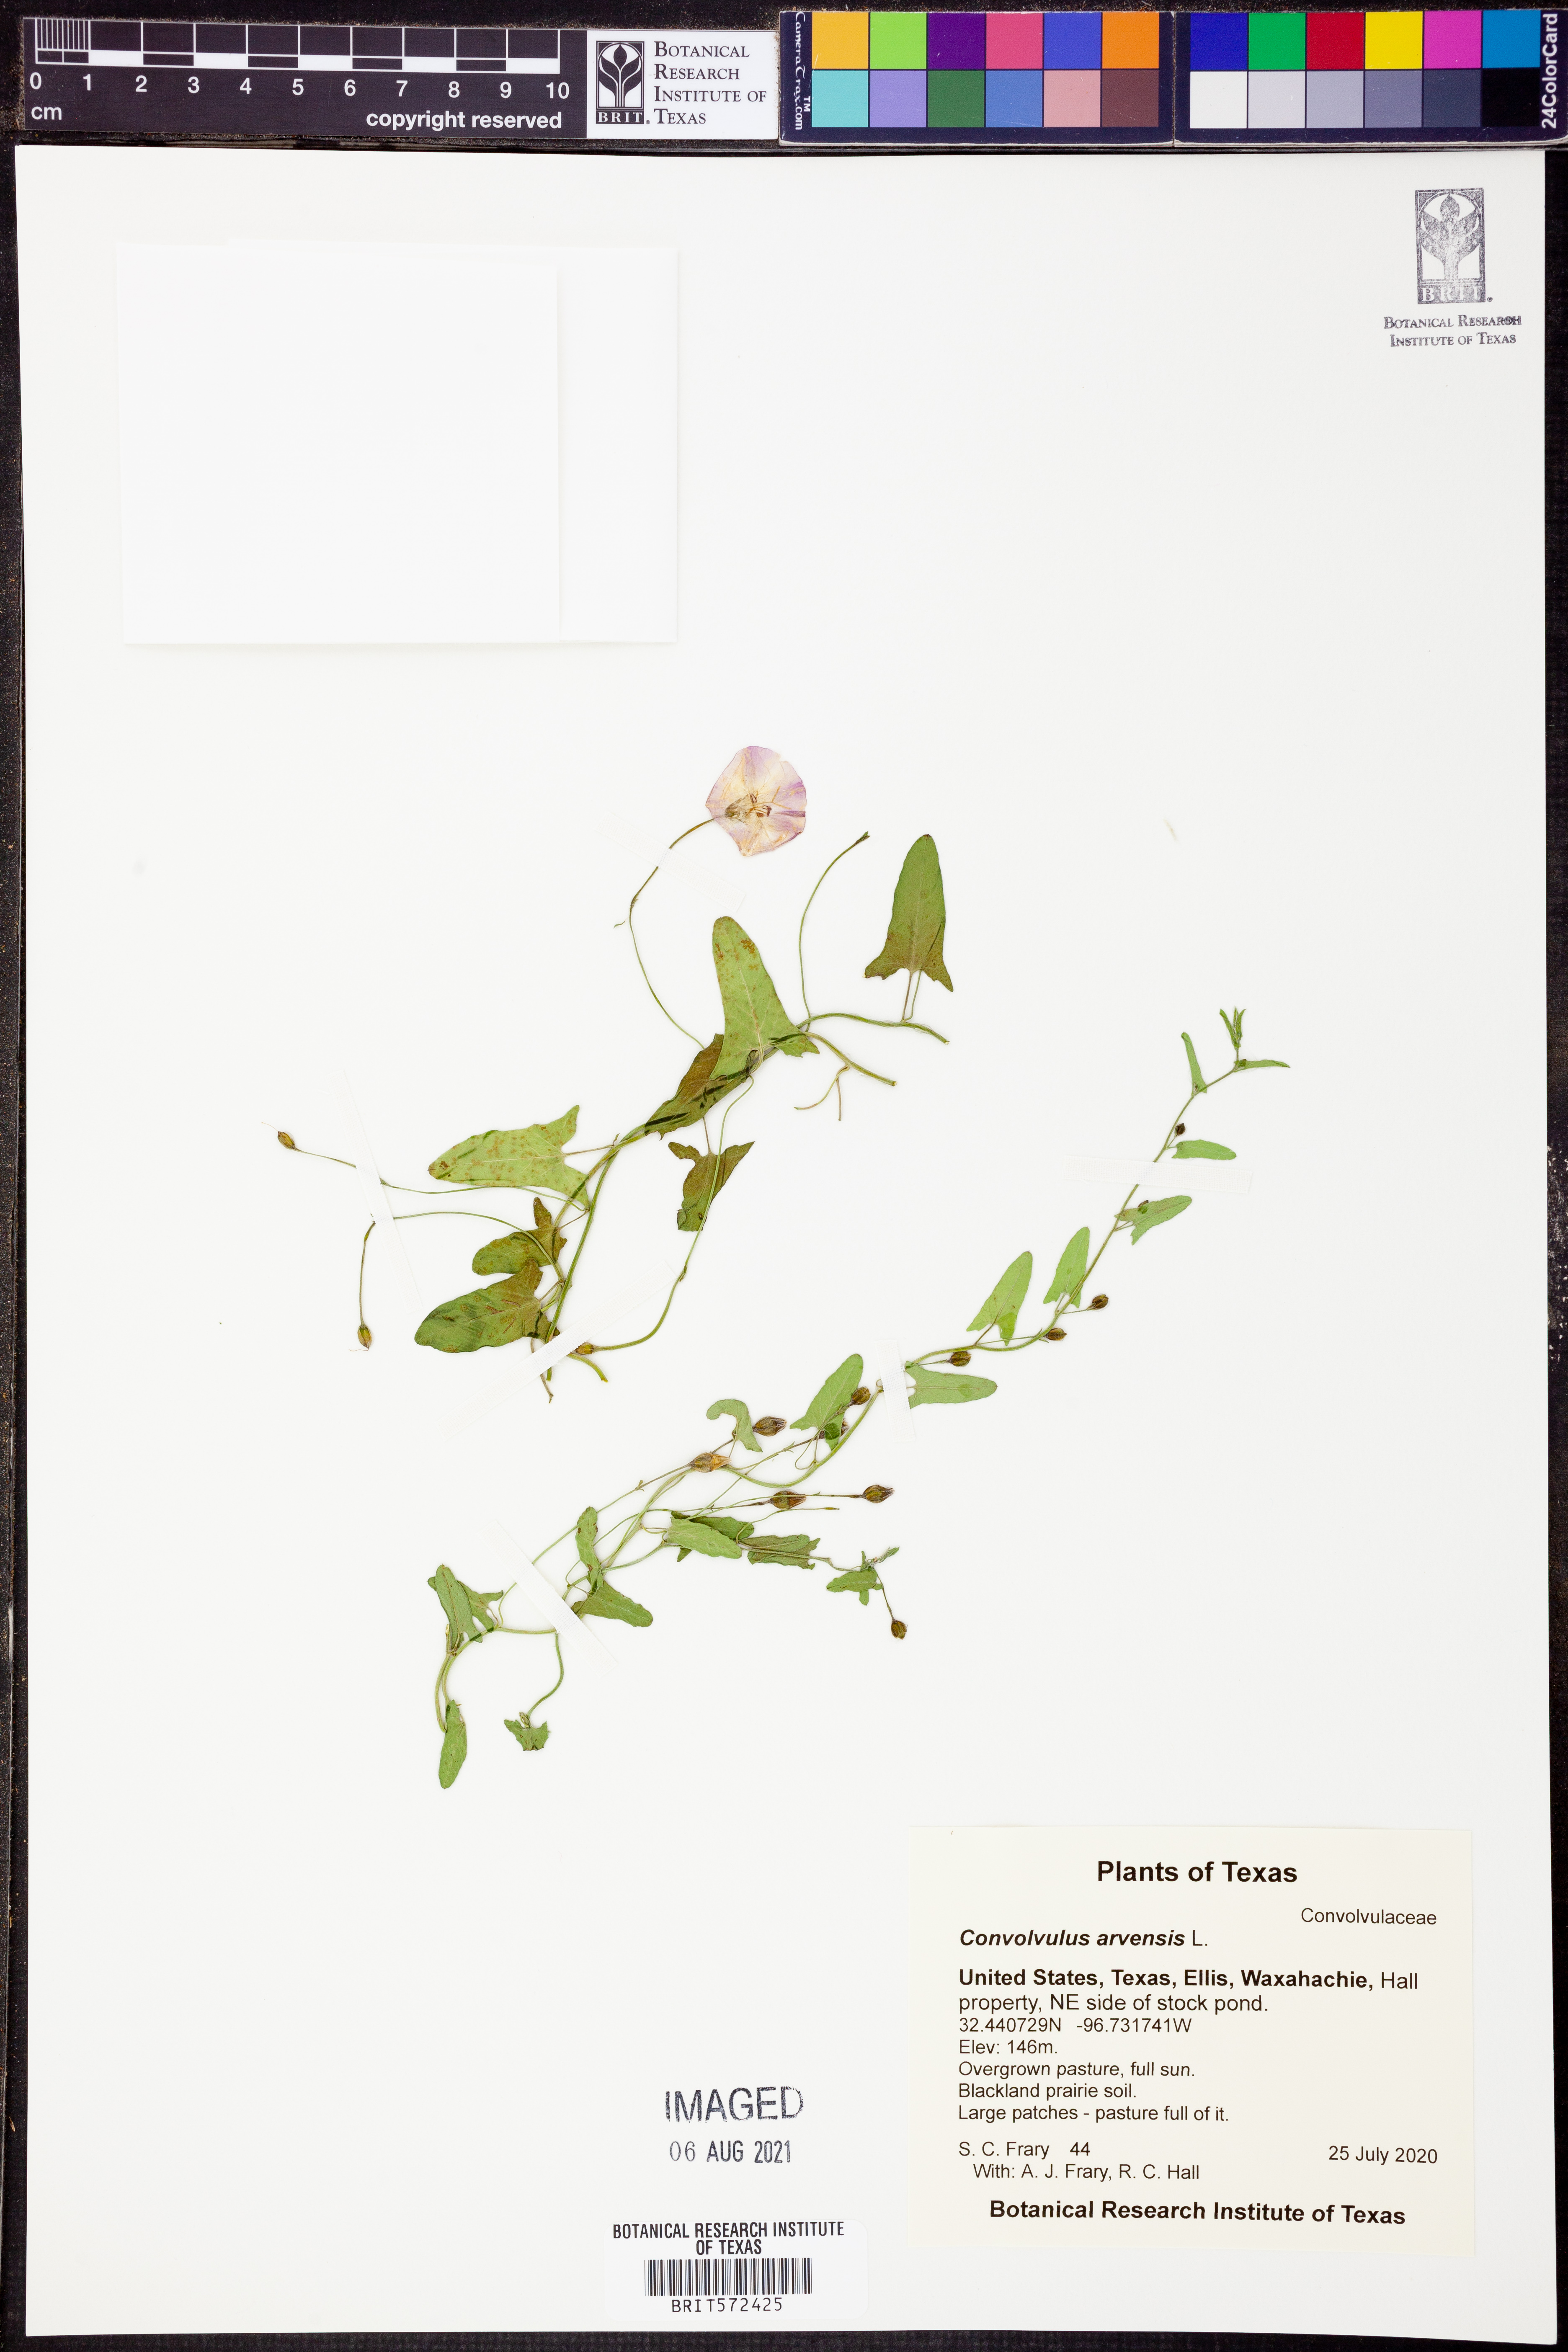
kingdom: Plantae
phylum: Tracheophyta
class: Magnoliopsida
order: Solanales
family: Convolvulaceae
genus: Convolvulus
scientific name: Convolvulus arvensis
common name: Field bindweed
